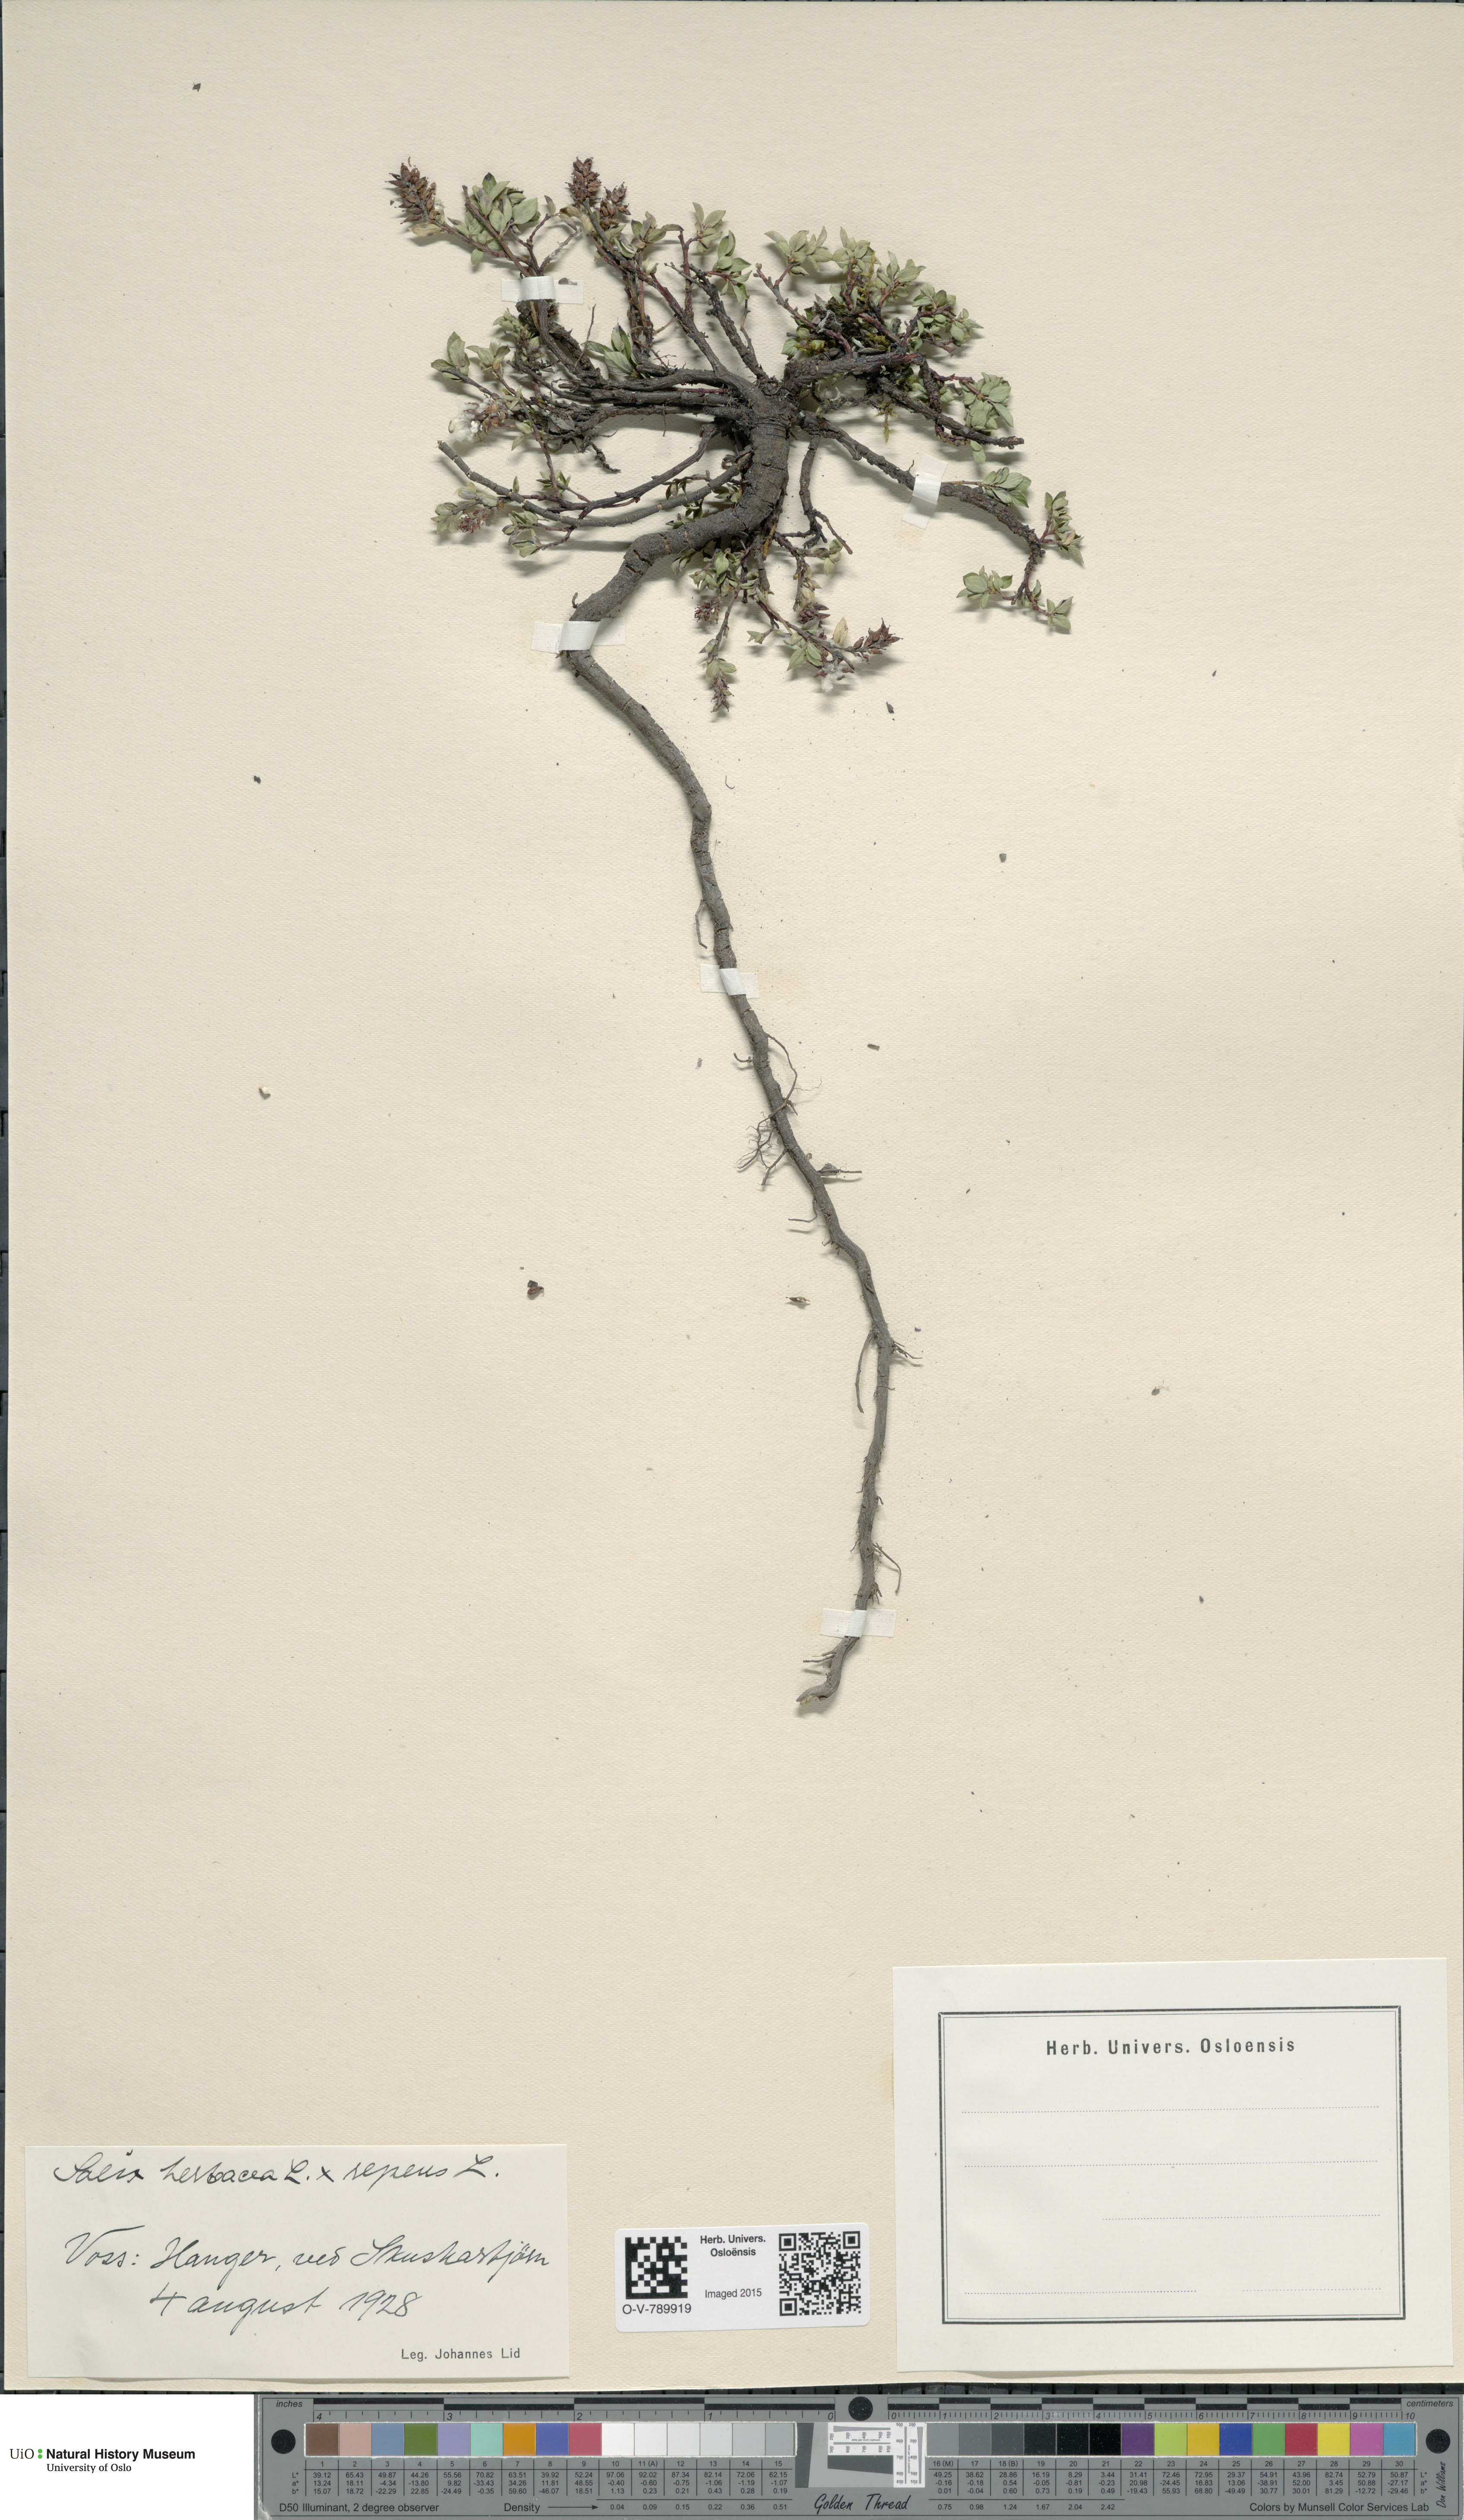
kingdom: Plantae
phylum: Tracheophyta
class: Magnoliopsida
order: Malpighiales
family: Salicaceae
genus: Salix
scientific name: Salix
